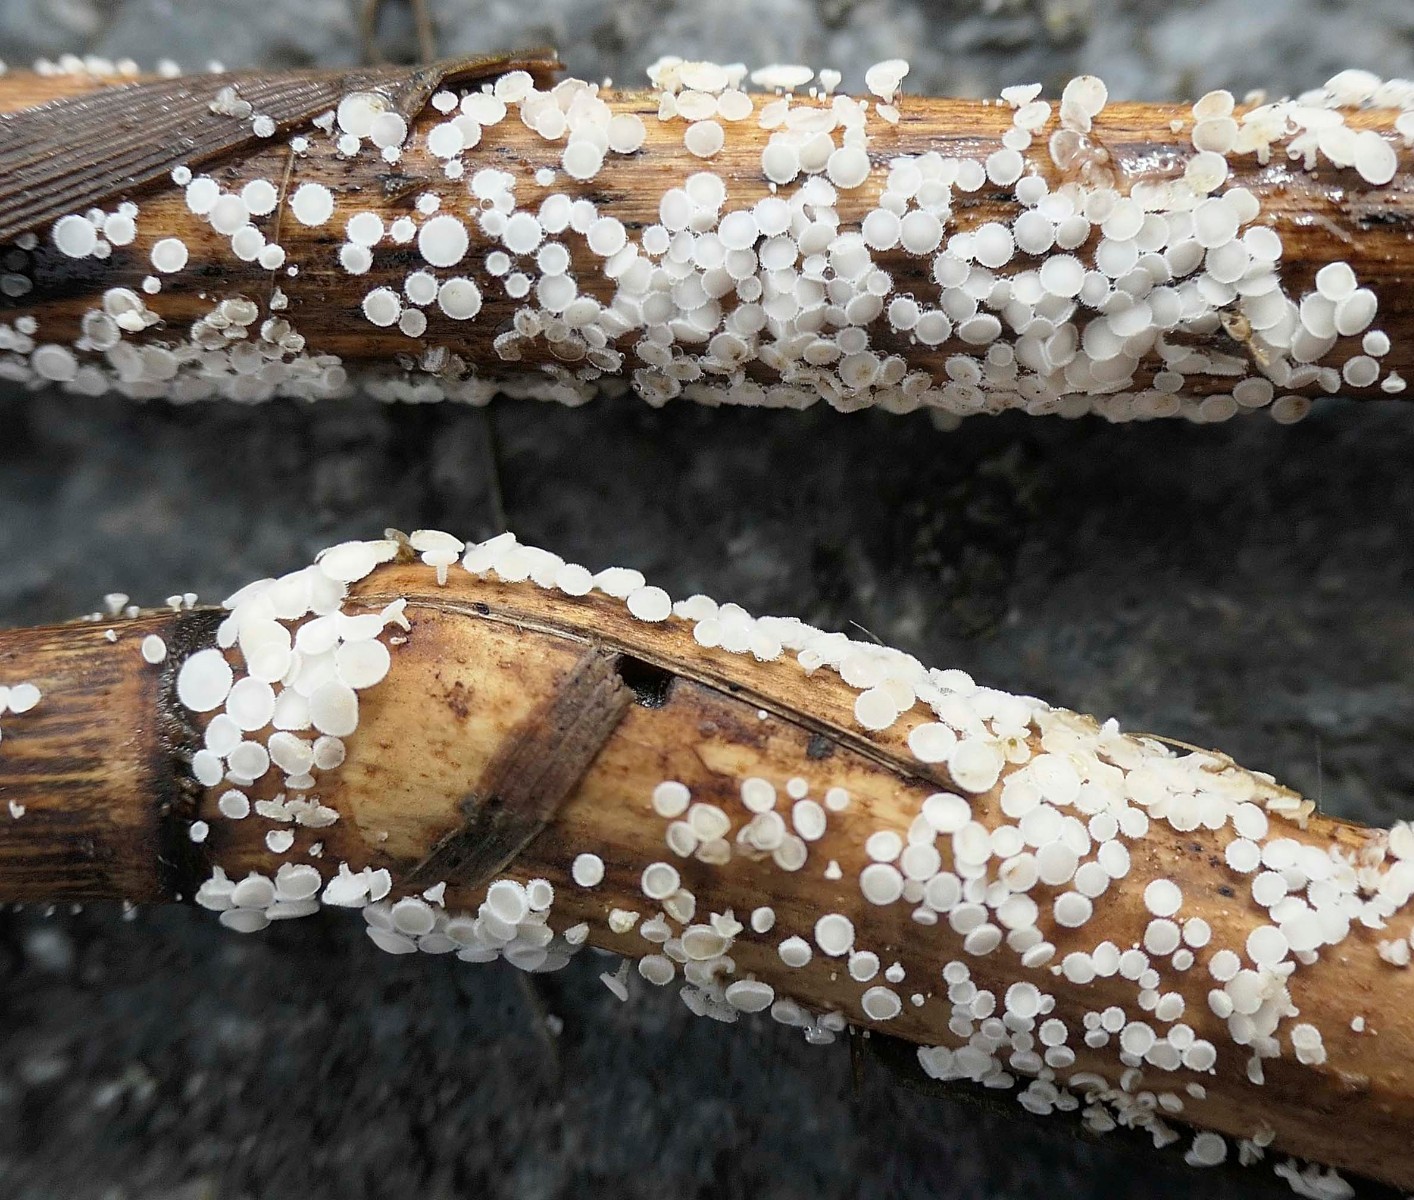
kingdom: Fungi
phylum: Ascomycota
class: Leotiomycetes
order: Helotiales
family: Lachnaceae
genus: Lachnum
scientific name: Lachnum
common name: frynseskive
